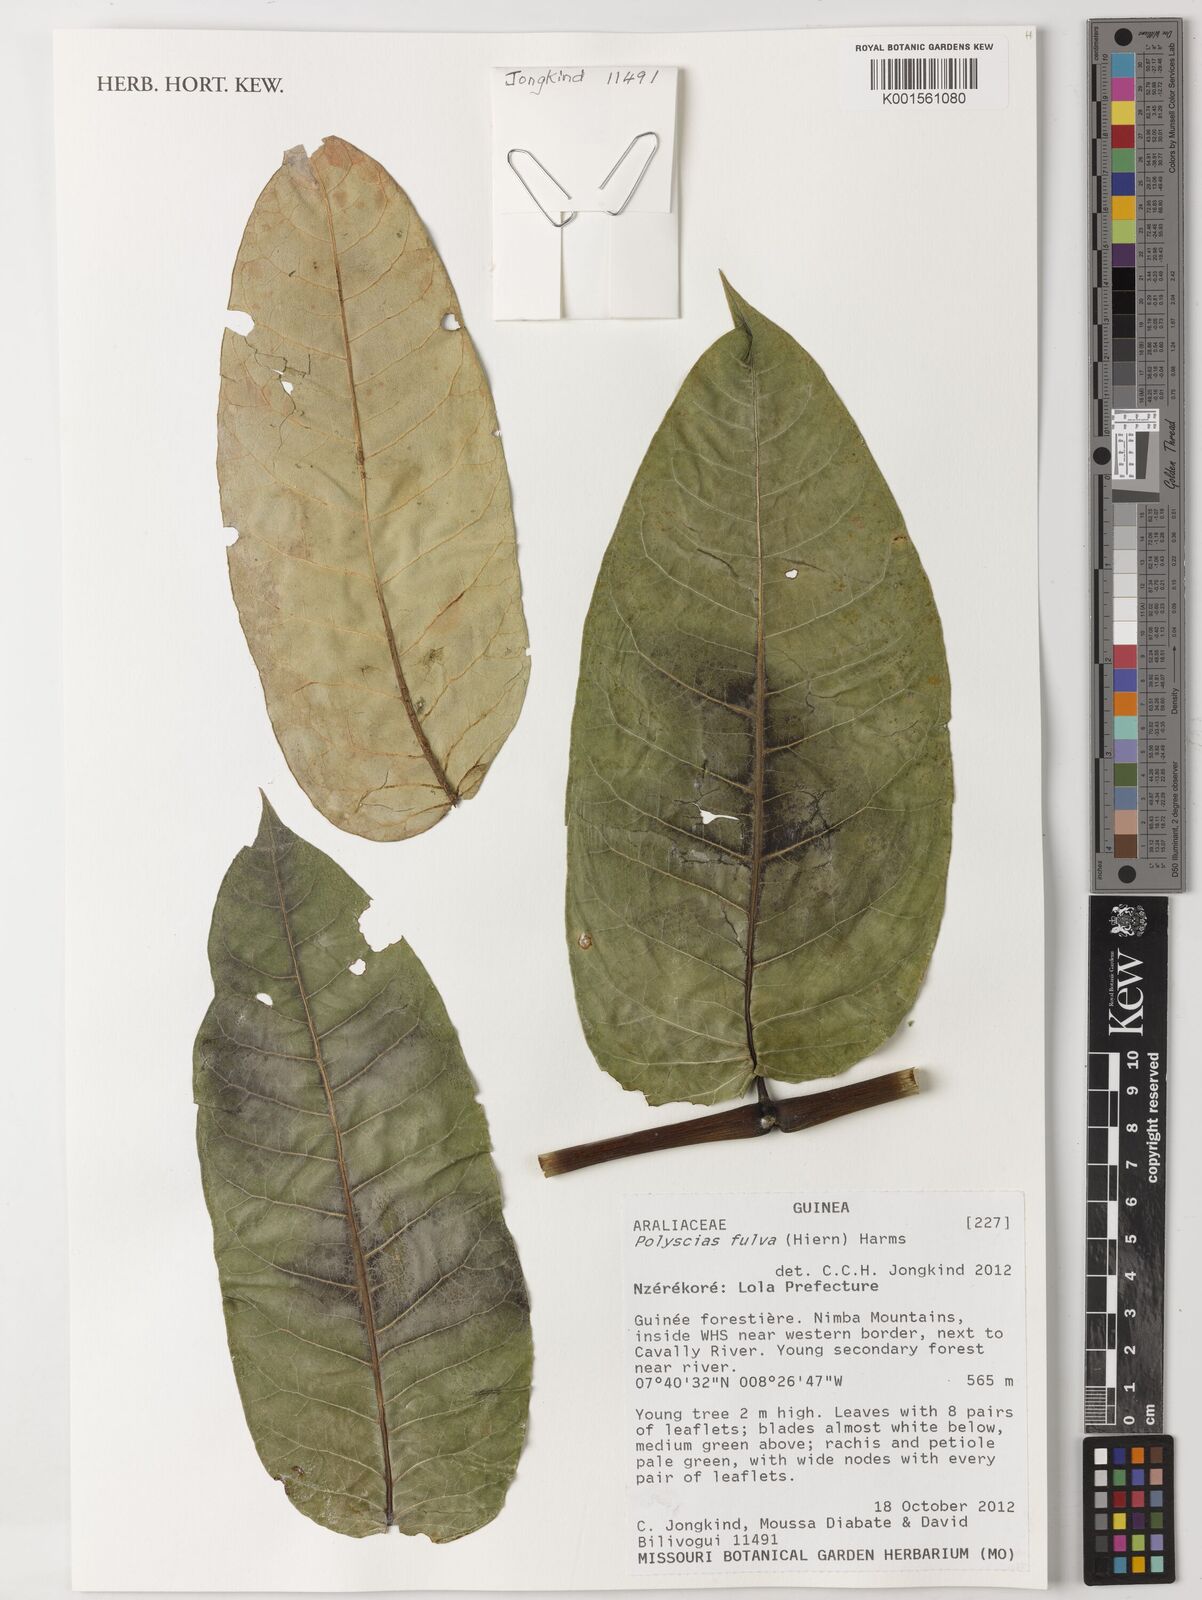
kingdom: Plantae
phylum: Tracheophyta
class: Magnoliopsida
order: Apiales
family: Araliaceae
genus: Polyscias
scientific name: Polyscias fulva
